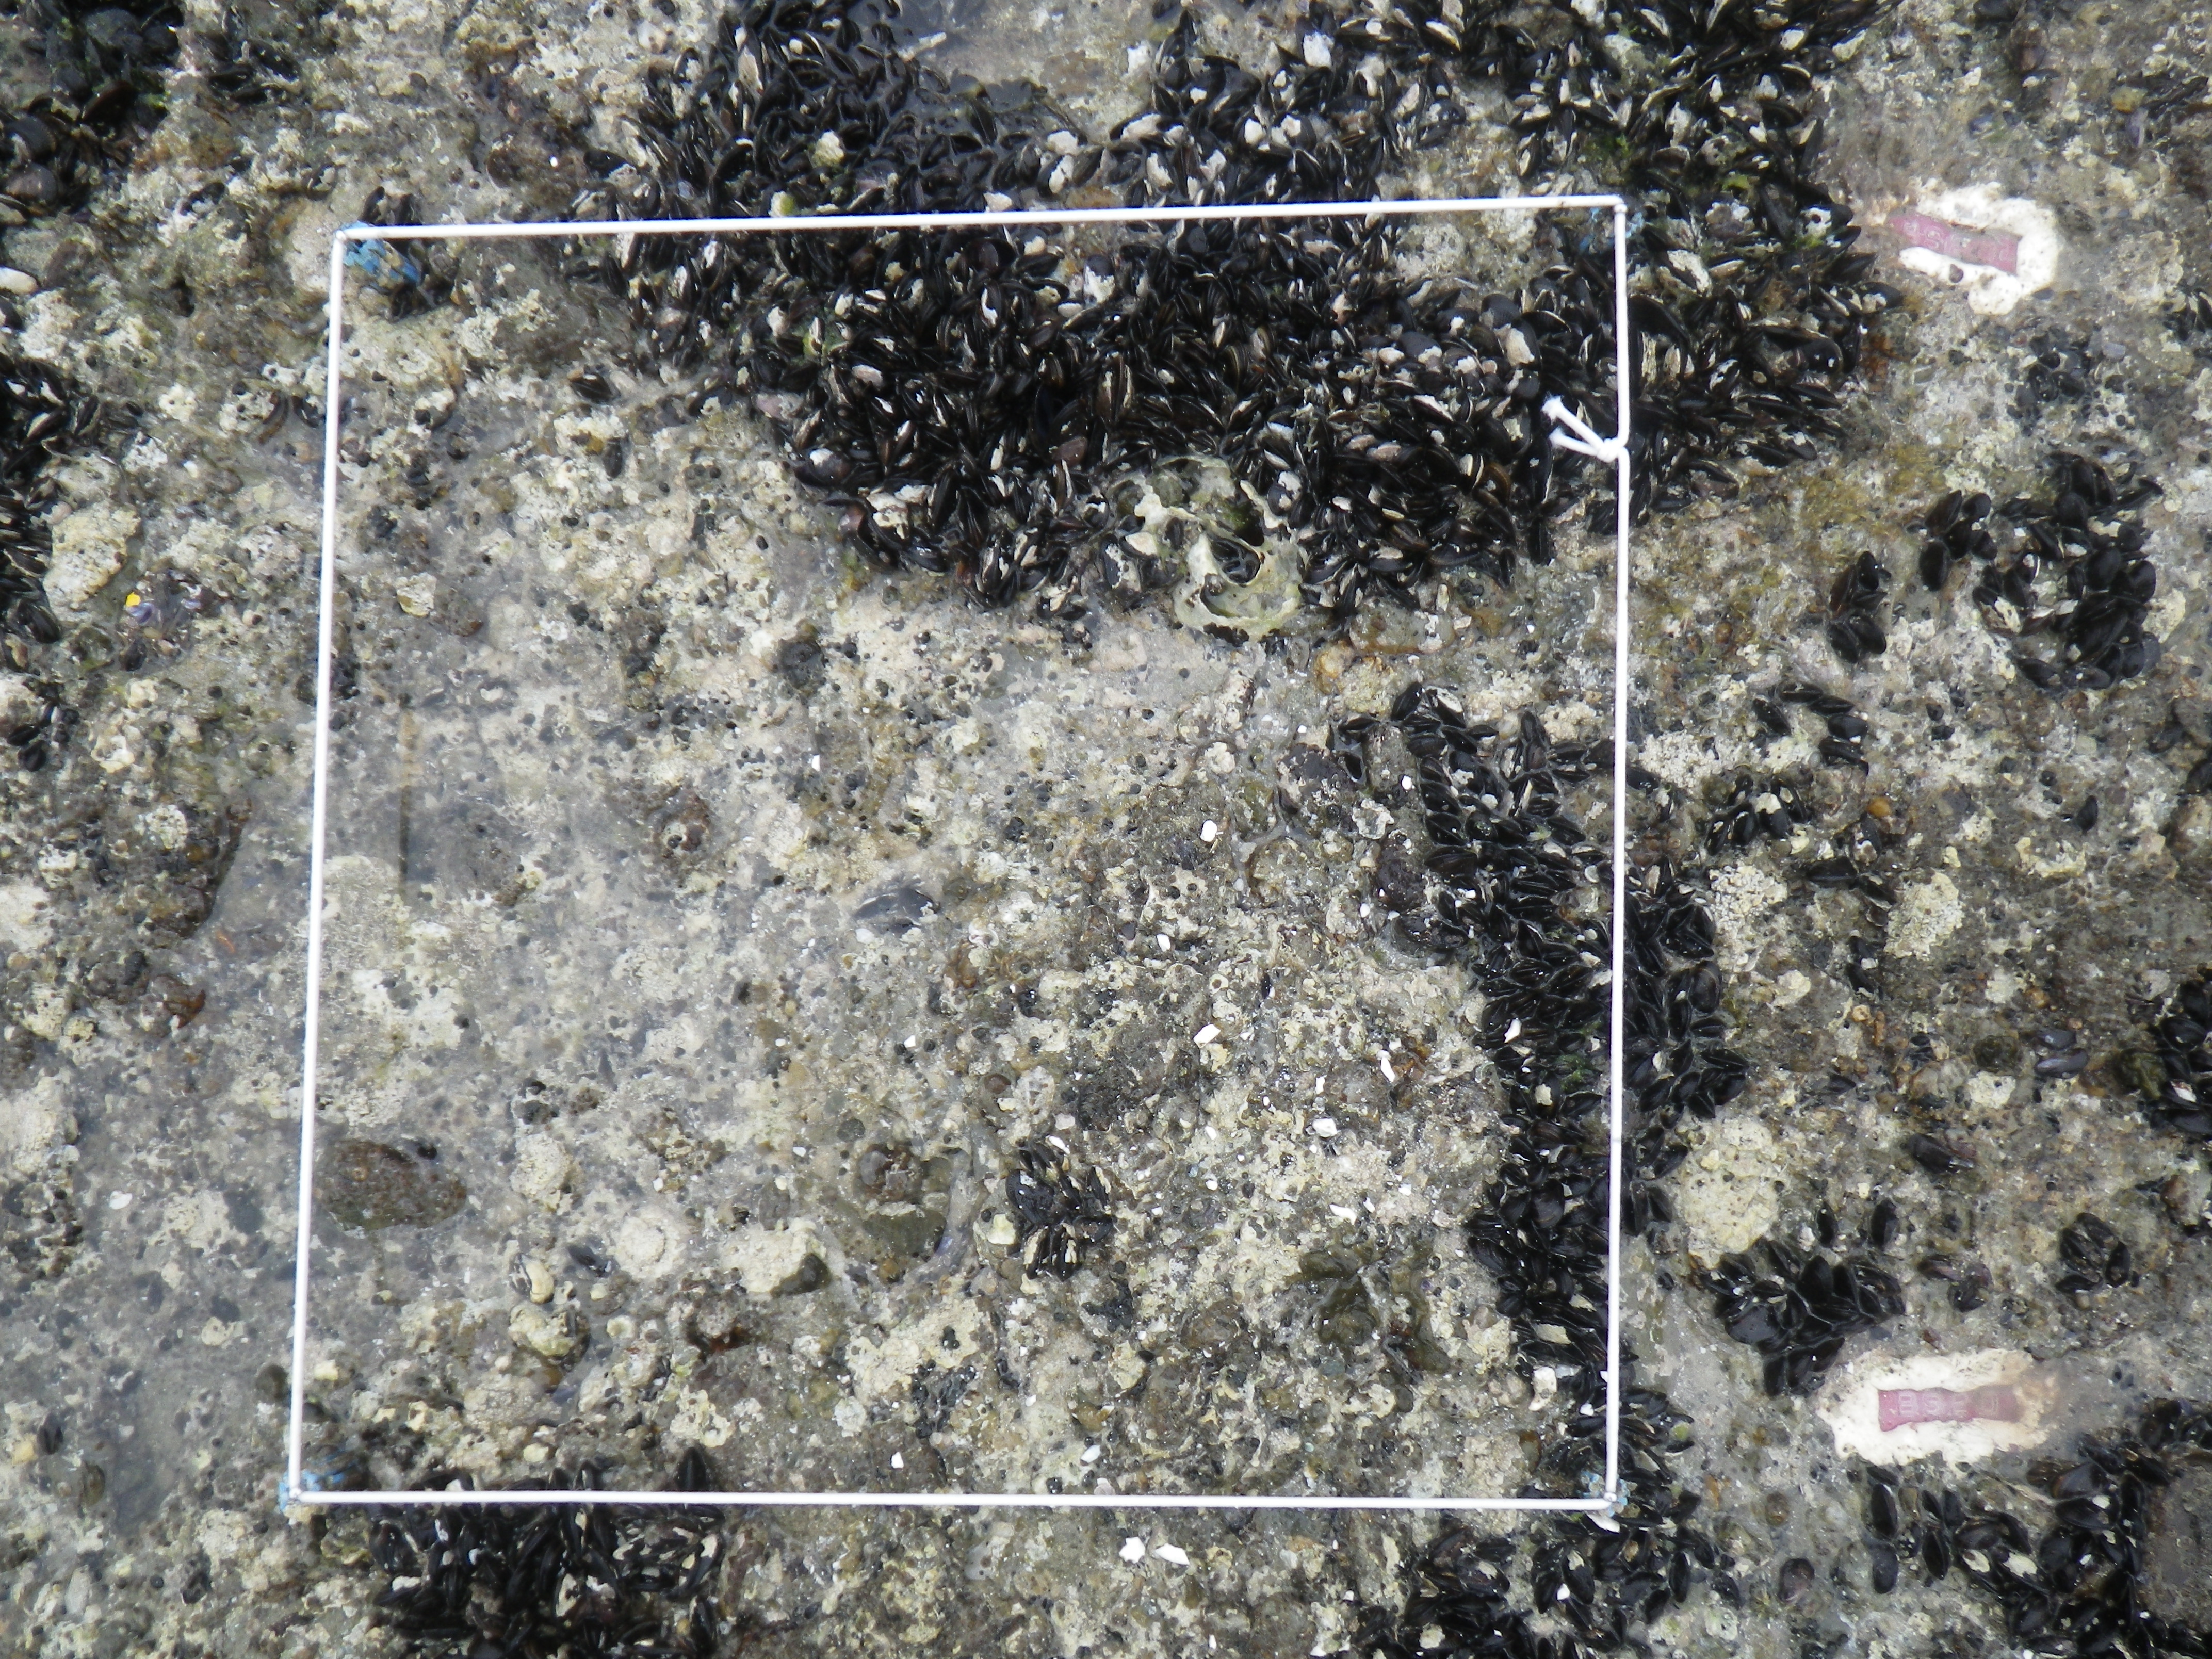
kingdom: Animalia
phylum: Mollusca
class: Bivalvia
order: Mytilida
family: Mytilidae
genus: Brachidontes
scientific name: Brachidontes mutabilis
